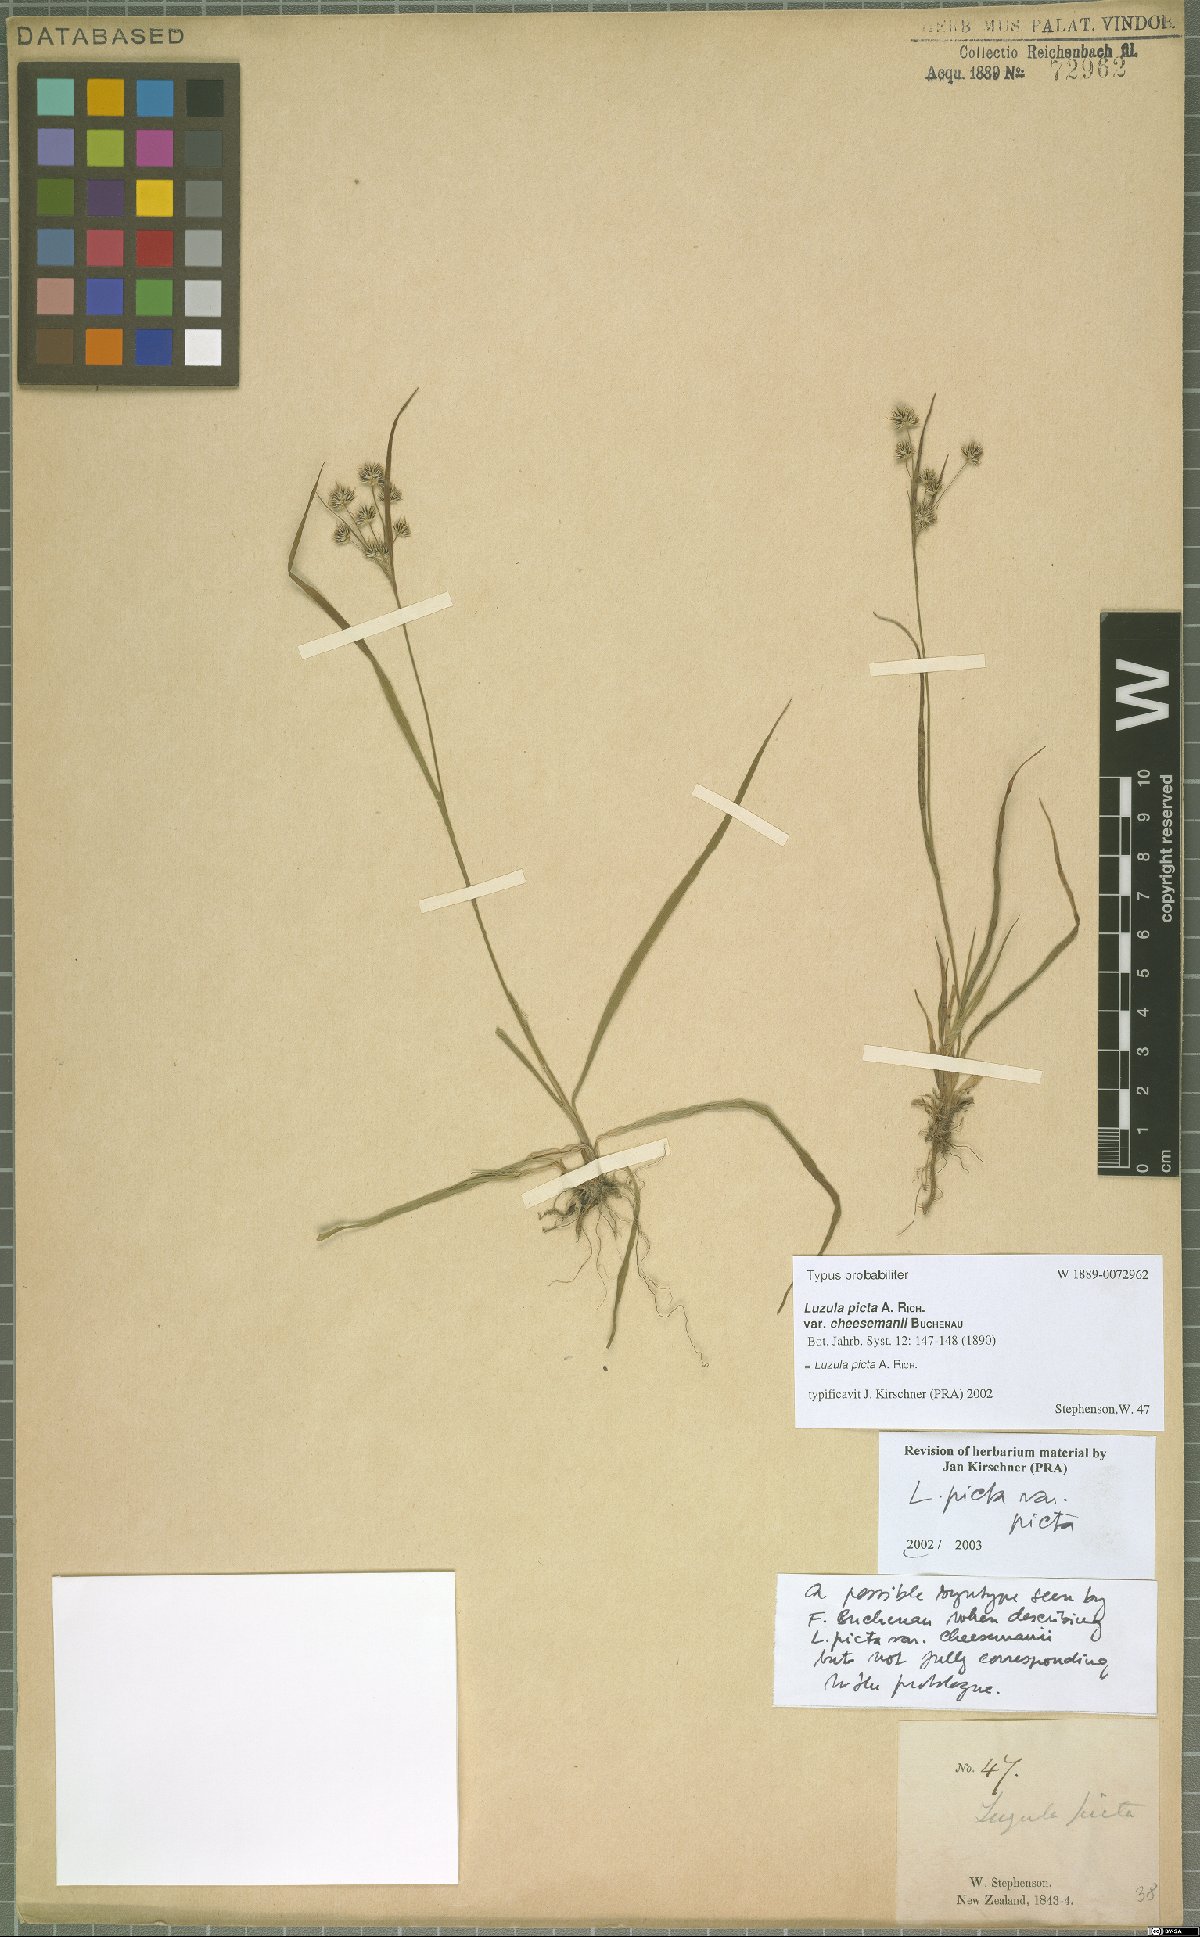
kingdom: Plantae
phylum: Tracheophyta
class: Liliopsida
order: Poales
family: Juncaceae
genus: Luzula
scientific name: Luzula picta
